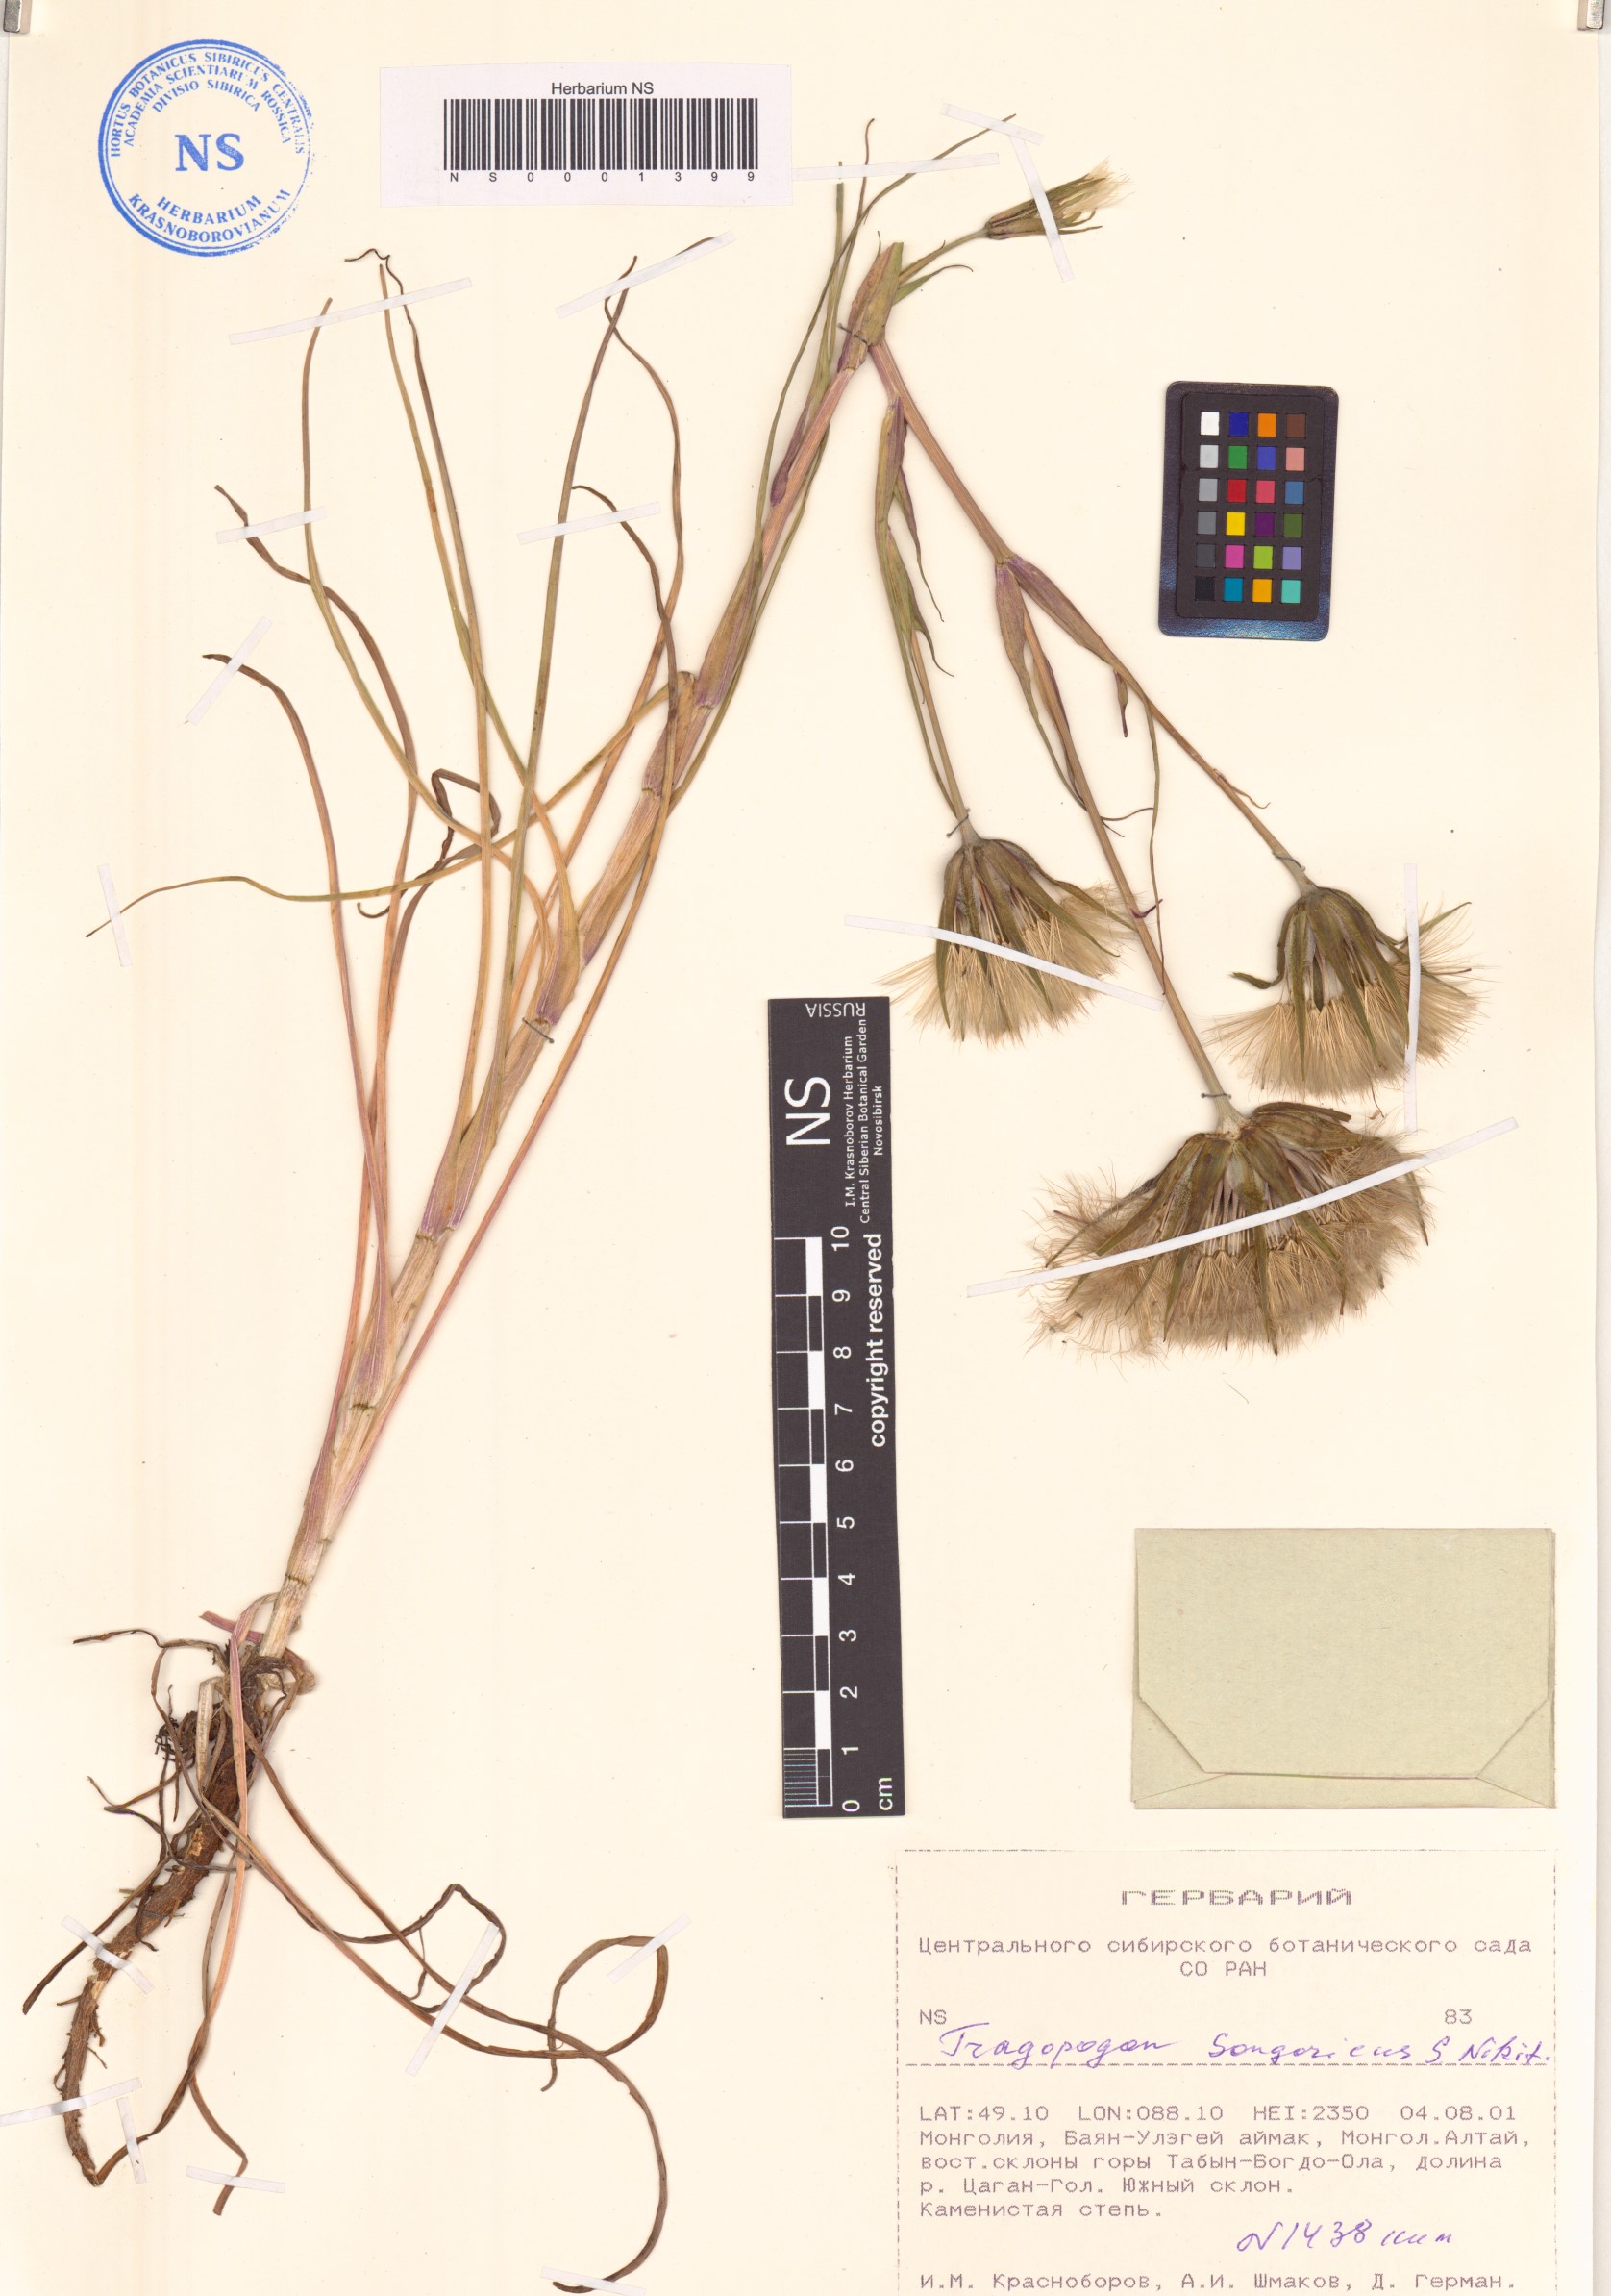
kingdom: Plantae
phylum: Tracheophyta
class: Magnoliopsida
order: Asterales
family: Asteraceae
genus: Tragopogon
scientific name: Tragopogon songoricus
